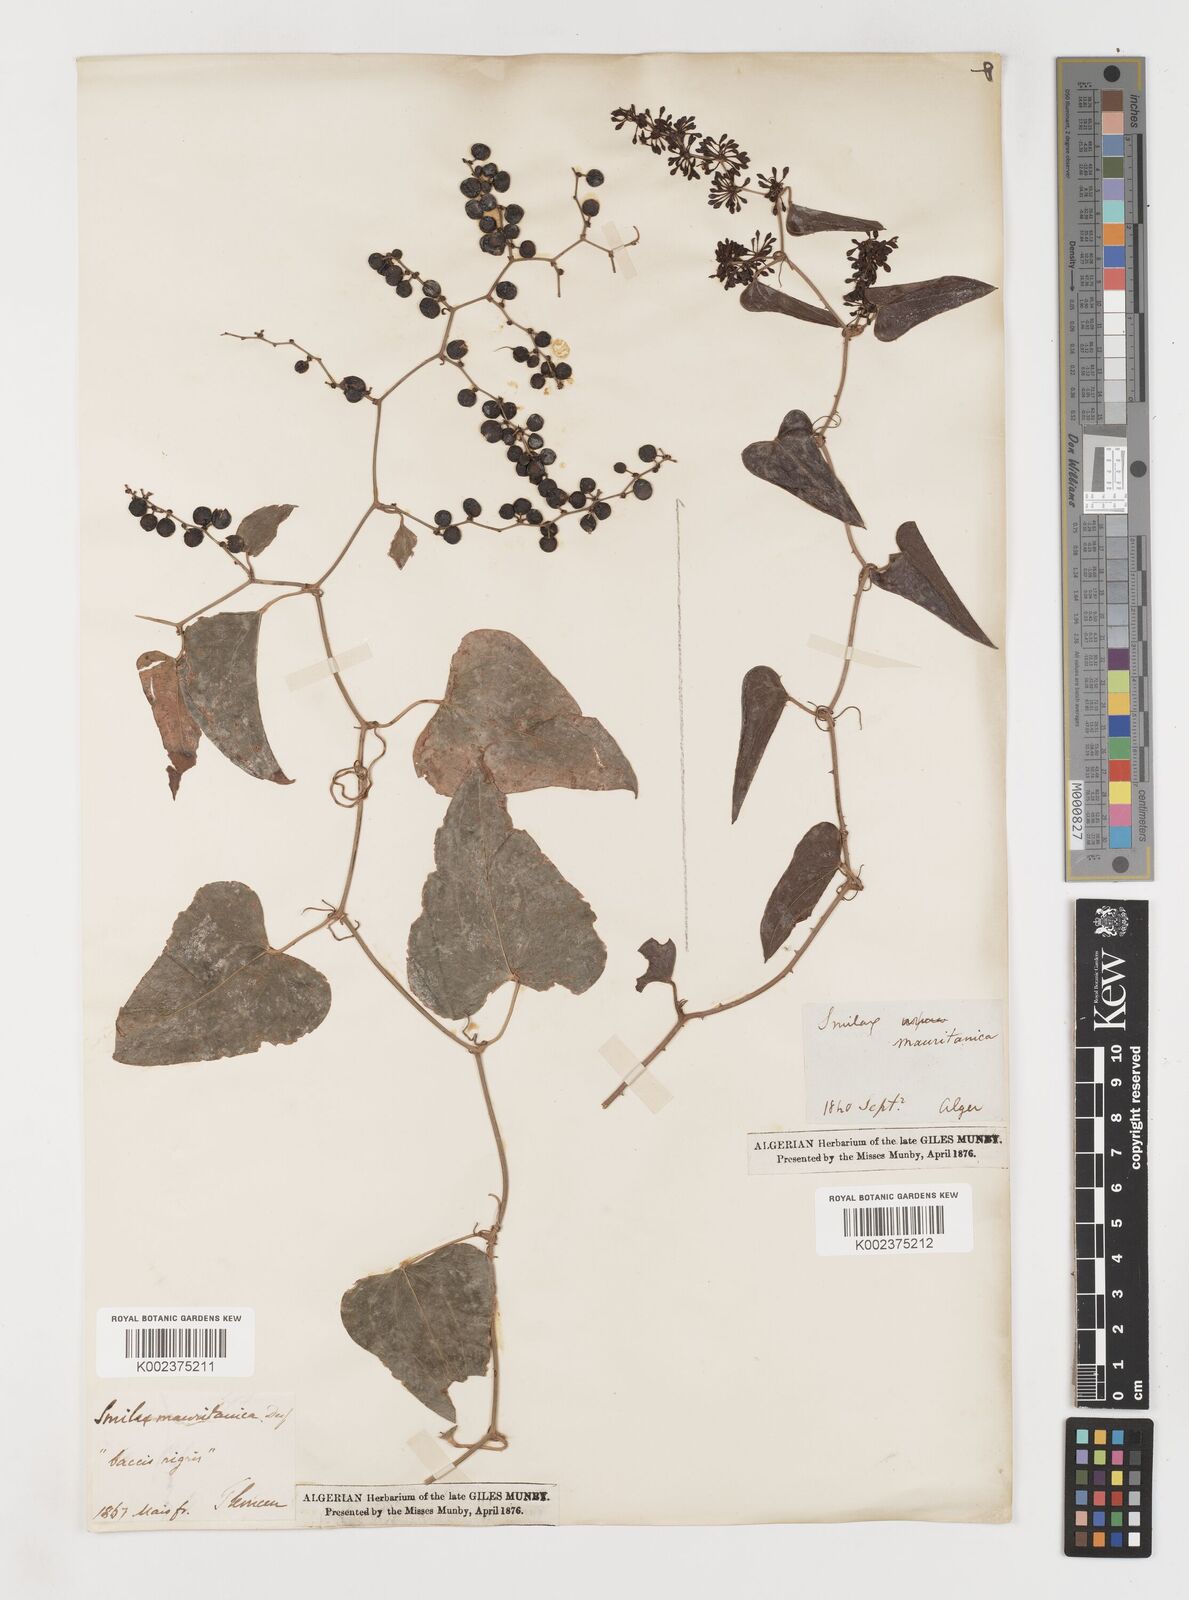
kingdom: Plantae
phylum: Tracheophyta
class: Liliopsida
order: Liliales
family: Smilacaceae
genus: Smilax
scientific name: Smilax aspera
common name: Common smilax
